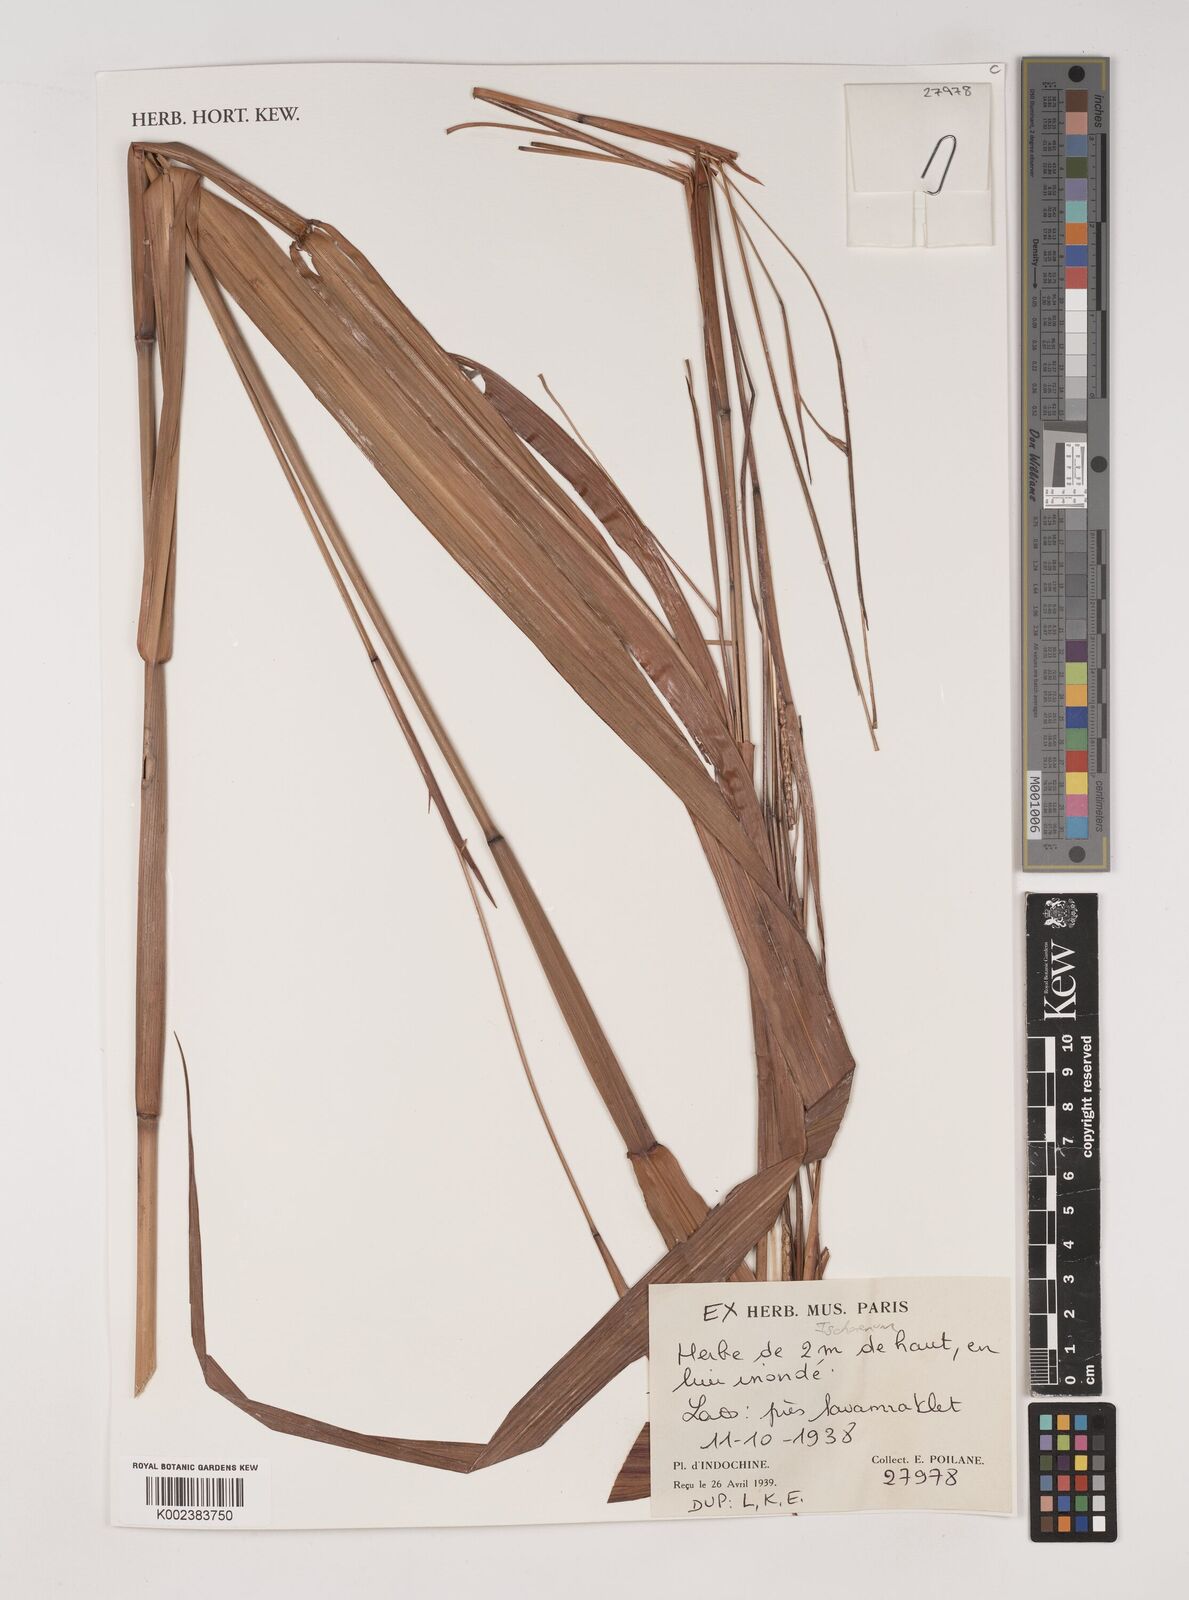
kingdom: Plantae
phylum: Tracheophyta
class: Liliopsida
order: Poales
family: Poaceae
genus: Ischaemum
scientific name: Ischaemum
